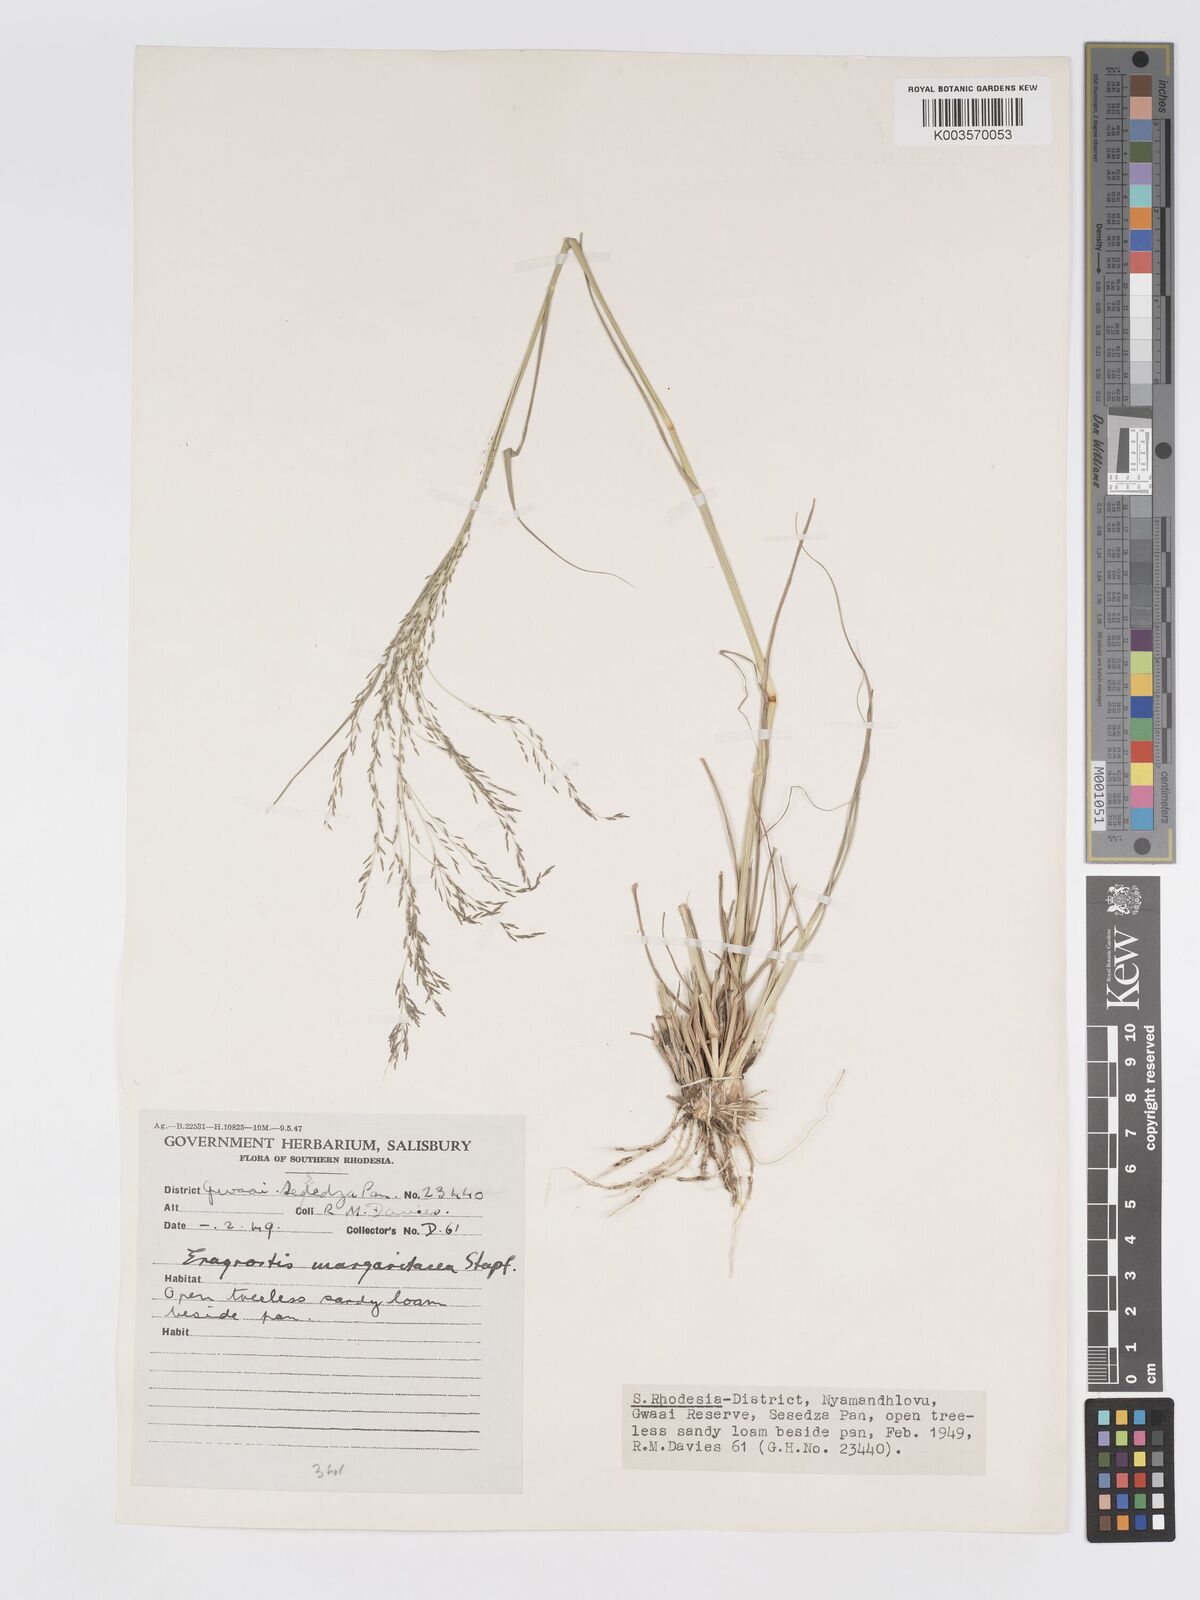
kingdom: Plantae
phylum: Tracheophyta
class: Liliopsida
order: Poales
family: Poaceae
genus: Eragrostis
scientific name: Eragrostis rotifer
